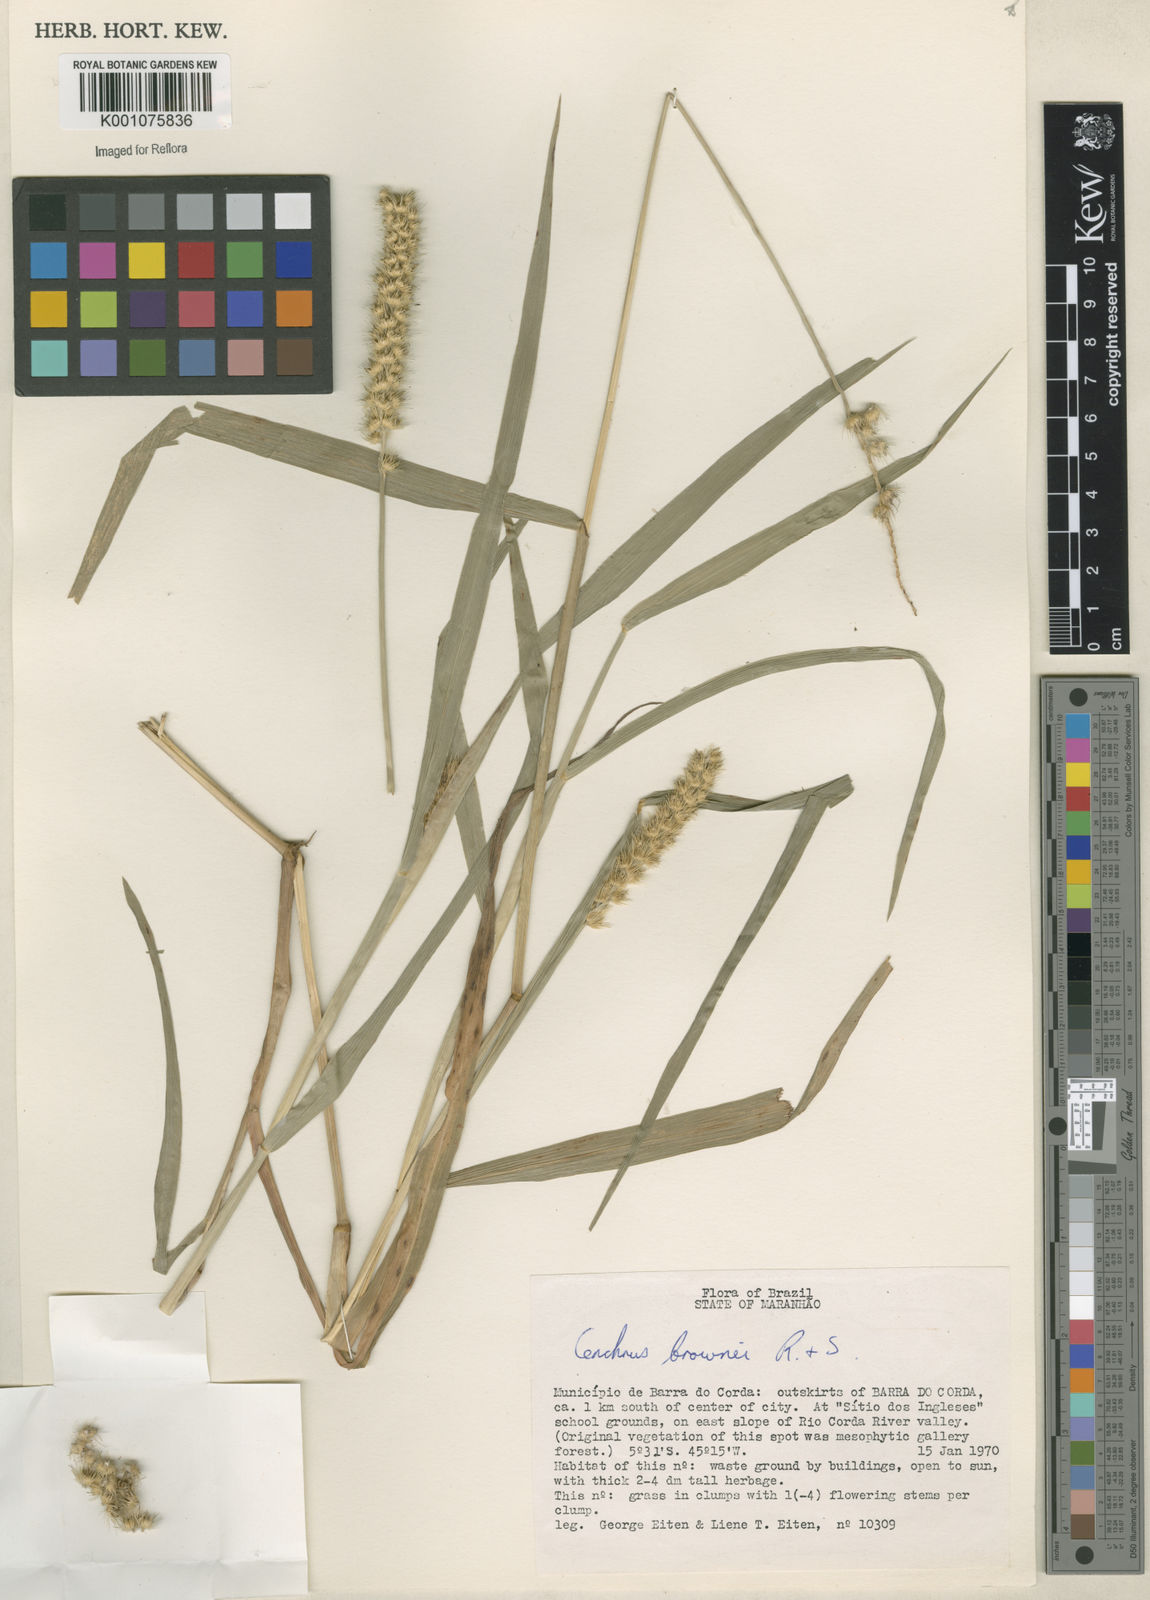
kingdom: Plantae
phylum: Tracheophyta
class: Liliopsida
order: Poales
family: Poaceae
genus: Cenchrus
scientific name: Cenchrus brownii
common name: Slim-bristle sandbur
